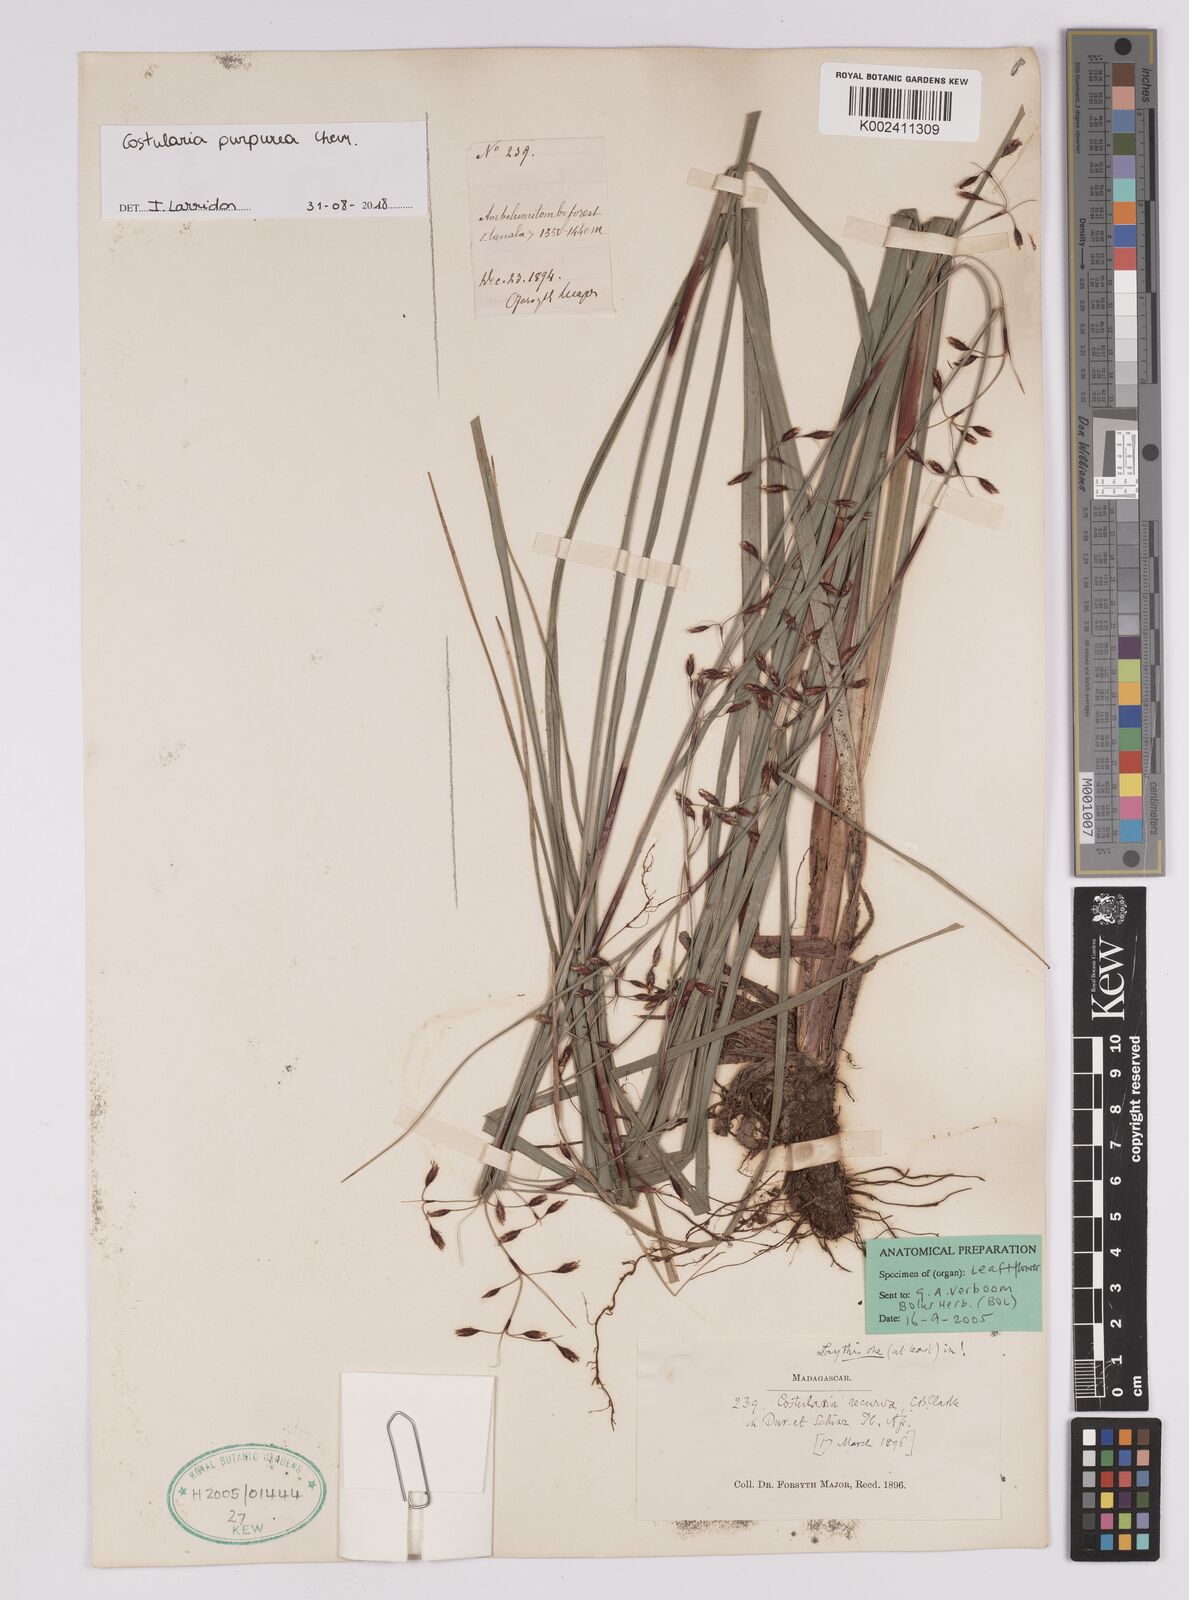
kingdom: Plantae
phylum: Tracheophyta
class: Liliopsida
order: Poales
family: Cyperaceae
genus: Costularia
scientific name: Costularia purpurea
